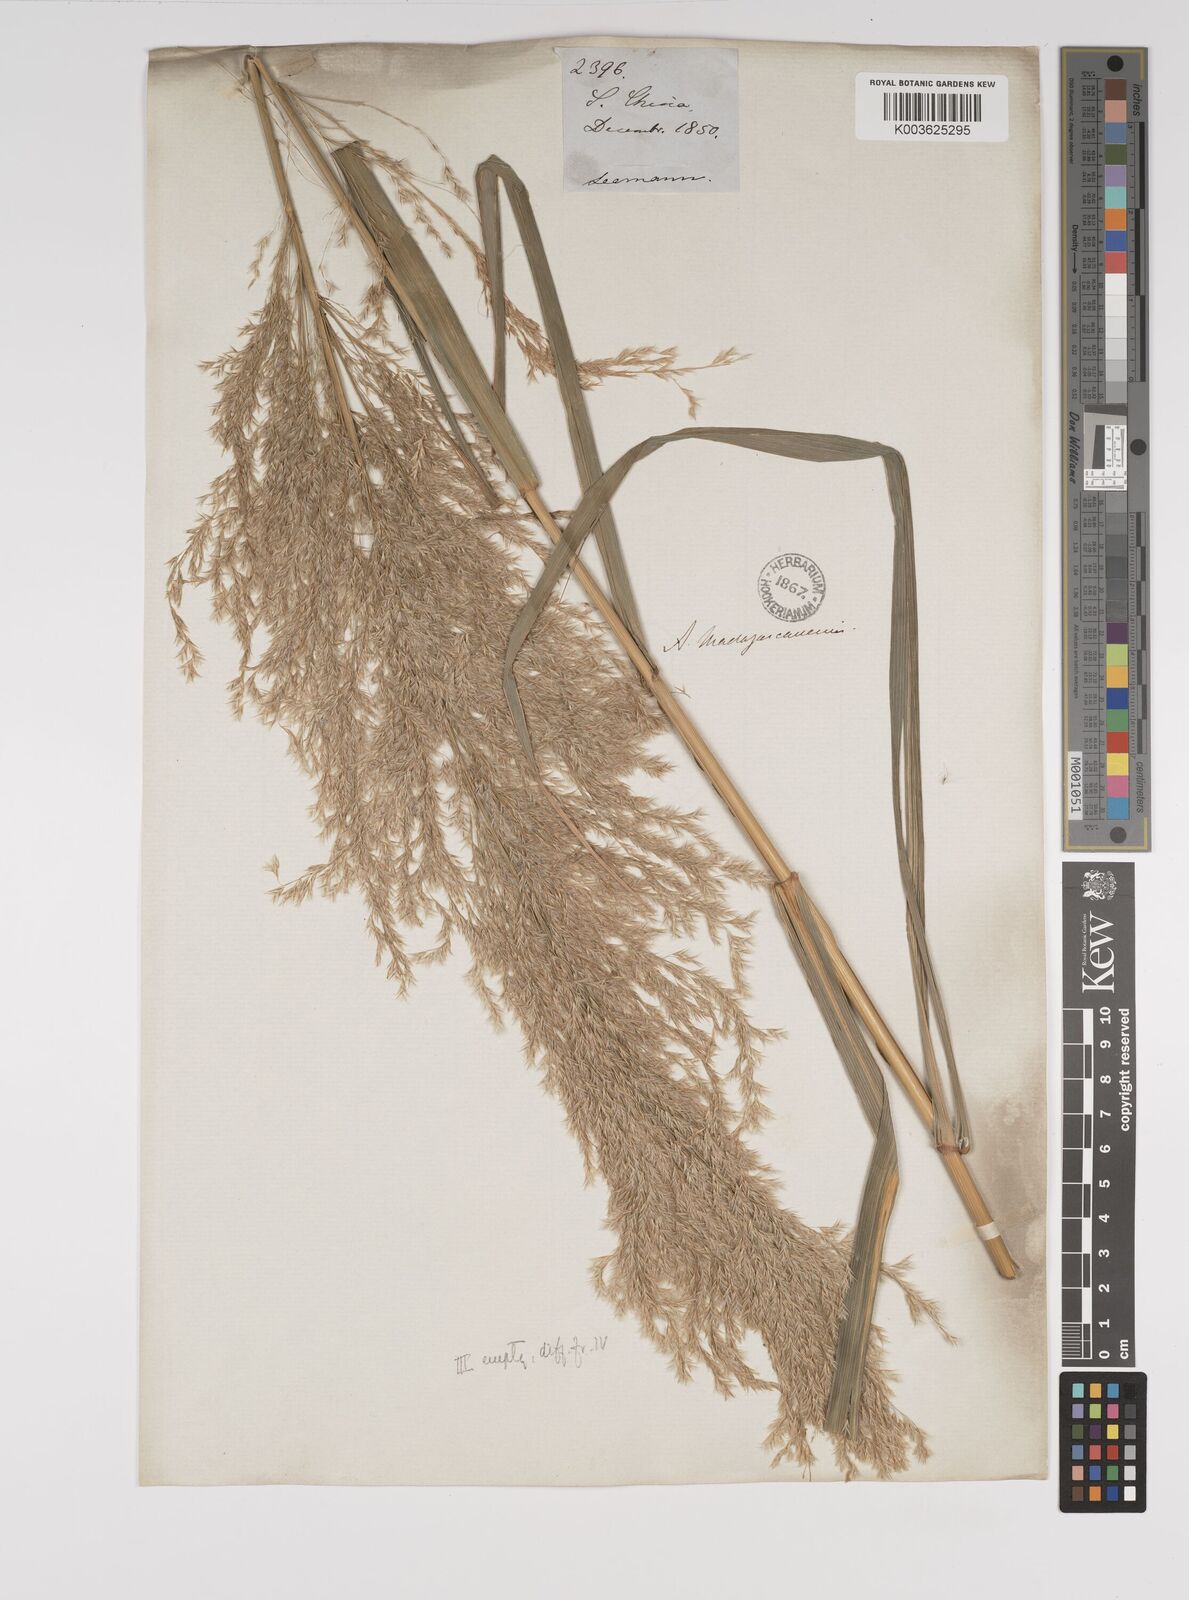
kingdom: Plantae
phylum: Tracheophyta
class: Liliopsida
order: Poales
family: Poaceae
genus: Neyraudia
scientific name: Neyraudia reynaudiana
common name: Silkreed
